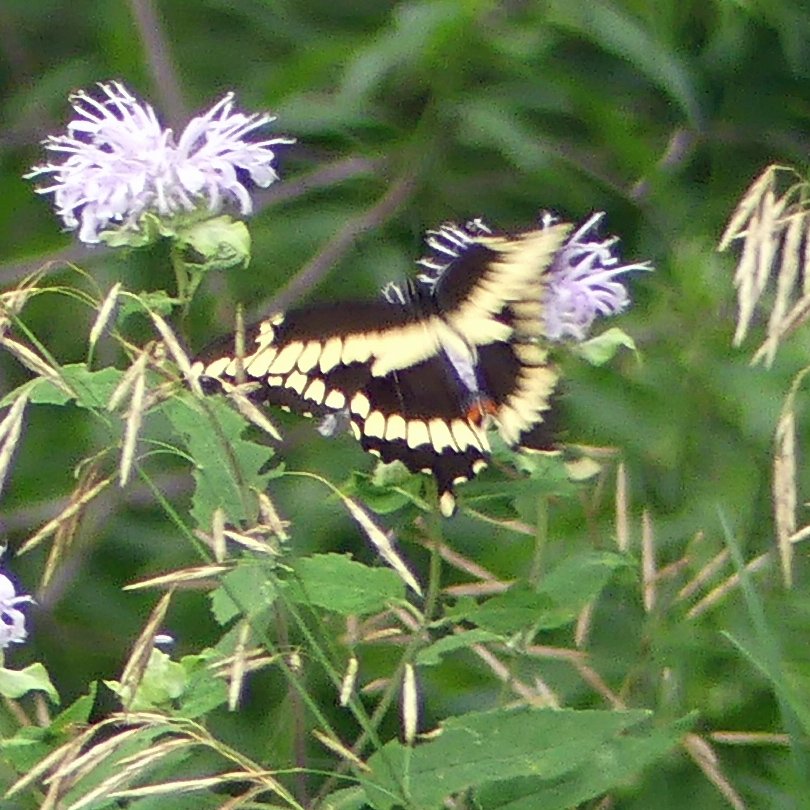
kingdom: Animalia
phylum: Arthropoda
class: Insecta
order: Lepidoptera
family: Papilionidae
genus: Papilio
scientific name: Papilio cresphontes
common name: Eastern Giant Swallowtail
